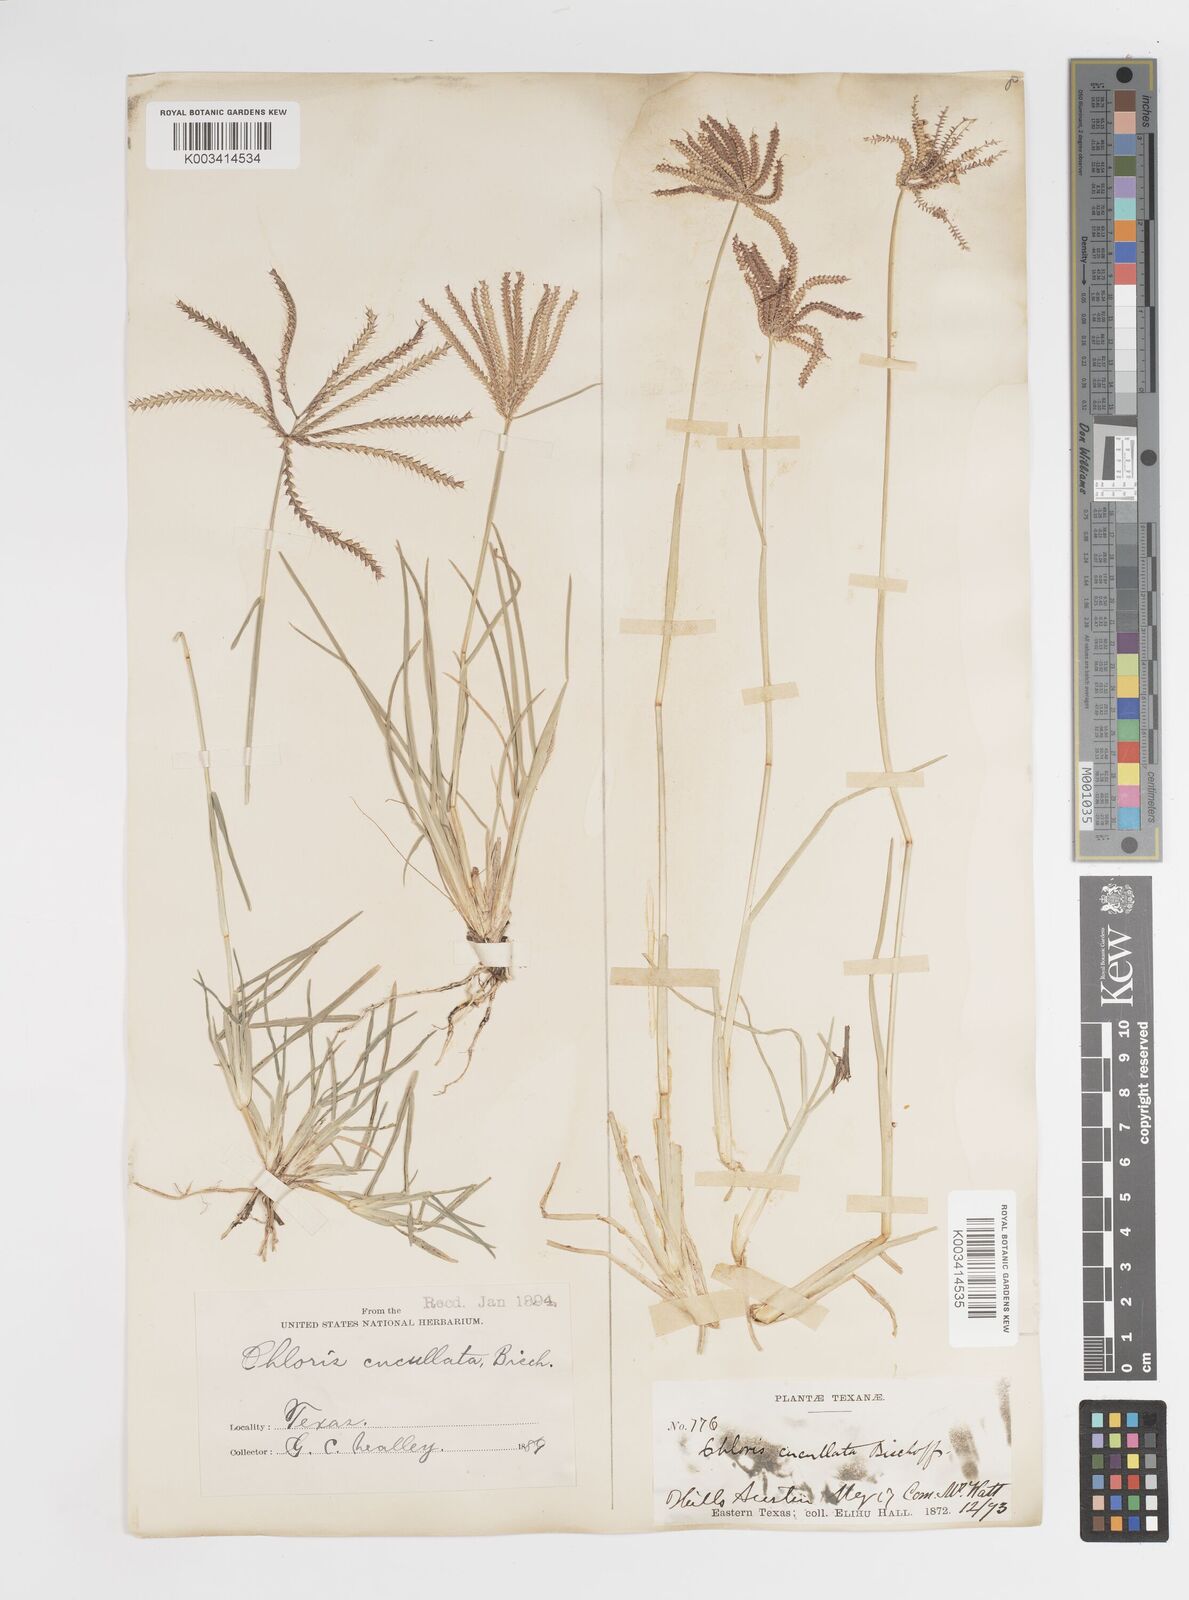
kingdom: Plantae
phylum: Tracheophyta
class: Liliopsida
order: Poales
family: Poaceae
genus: Chloris
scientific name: Chloris cucullata
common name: Hooded windmill grass
